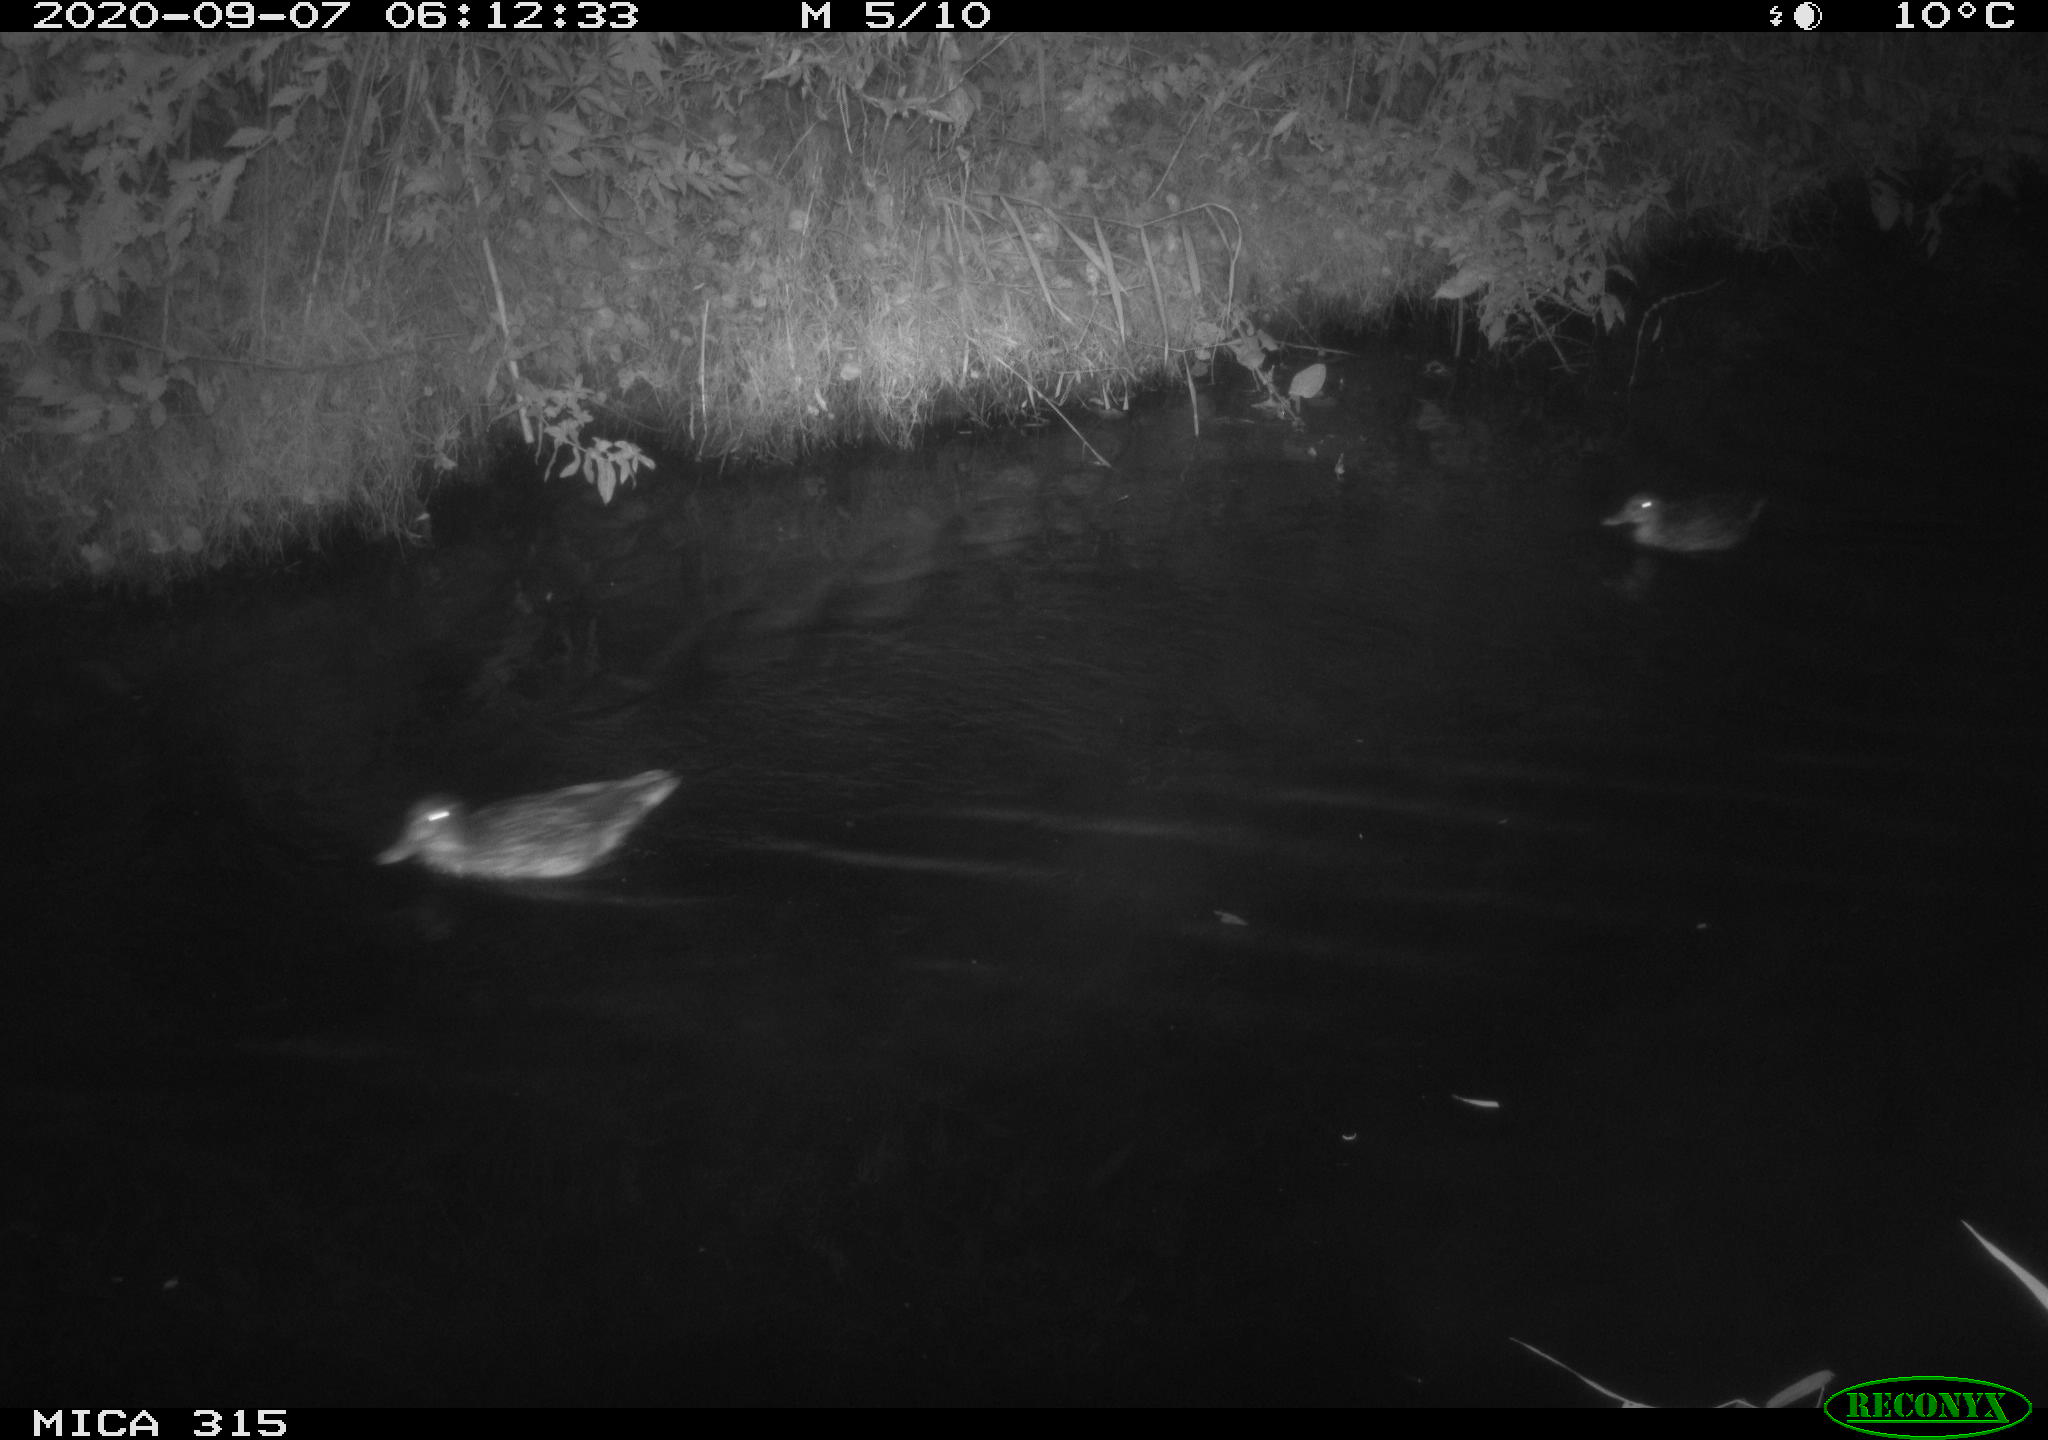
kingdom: Animalia
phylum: Chordata
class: Aves
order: Anseriformes
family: Anatidae
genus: Anas
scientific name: Anas platyrhynchos
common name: Mallard
